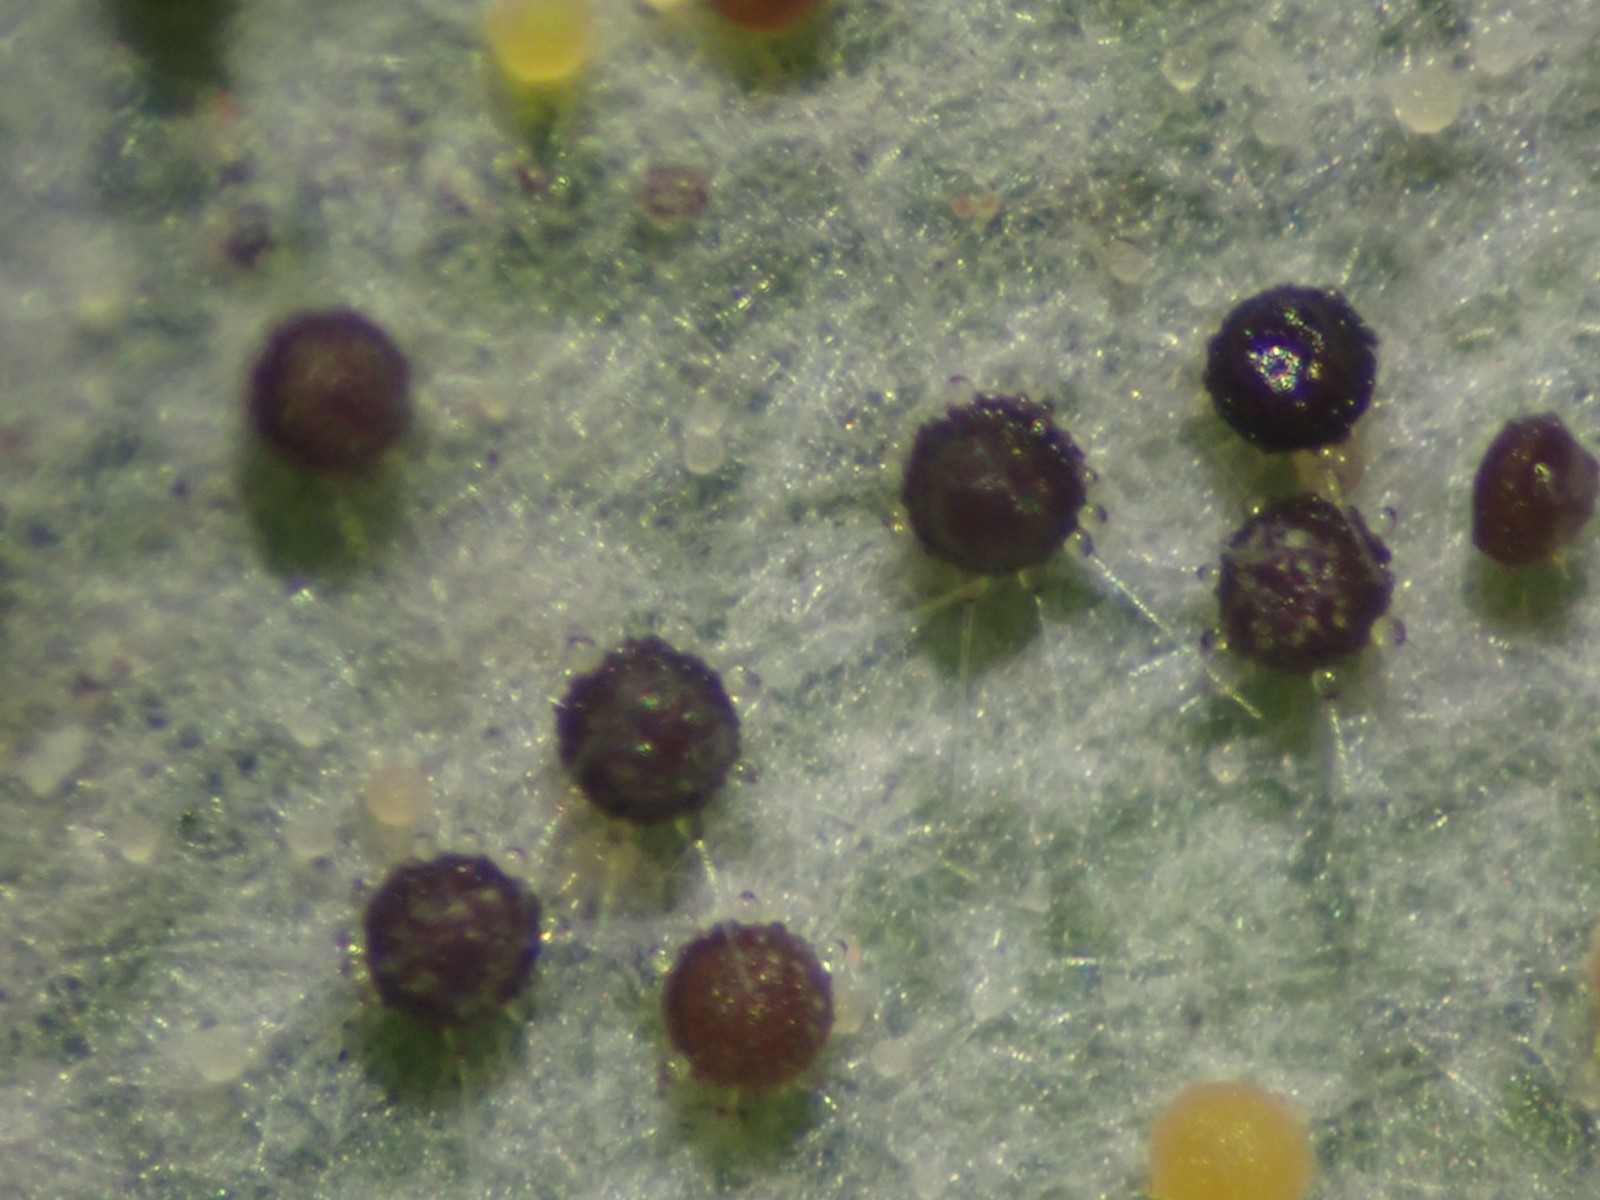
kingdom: Fungi
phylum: Ascomycota
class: Leotiomycetes
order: Helotiales
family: Erysiphaceae
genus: Phyllactinia
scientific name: Phyllactinia guttata
